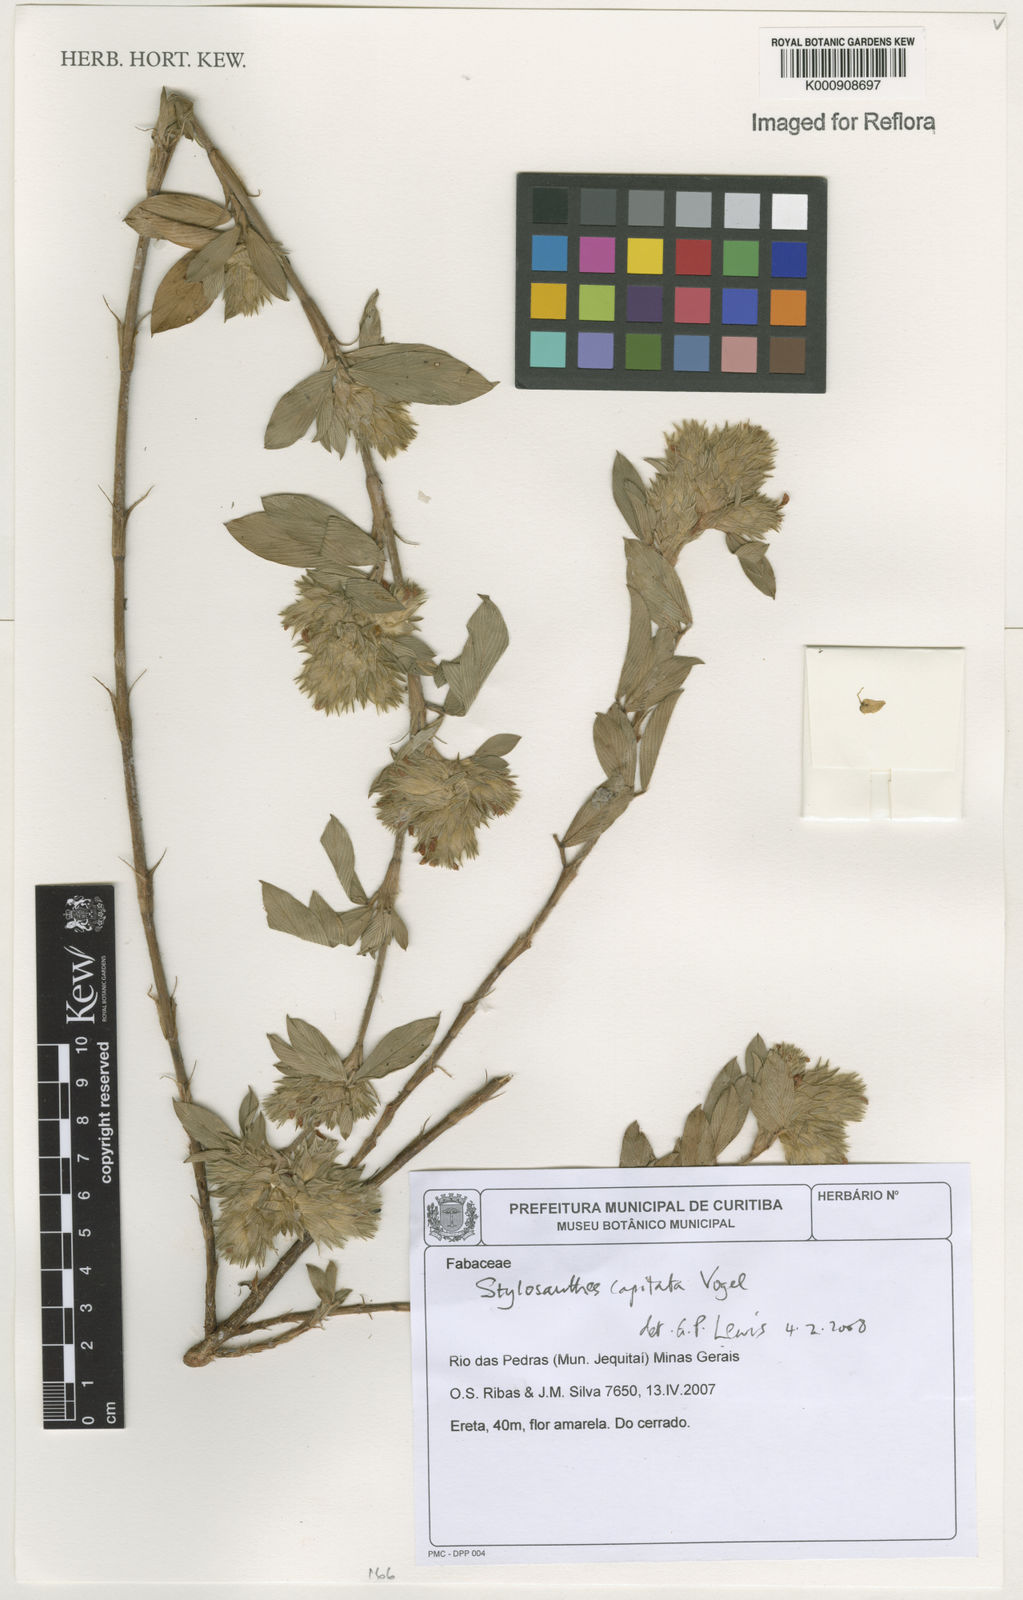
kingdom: Plantae
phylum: Tracheophyta
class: Magnoliopsida
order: Fabales
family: Fabaceae
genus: Stylosanthes
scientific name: Stylosanthes capitata
